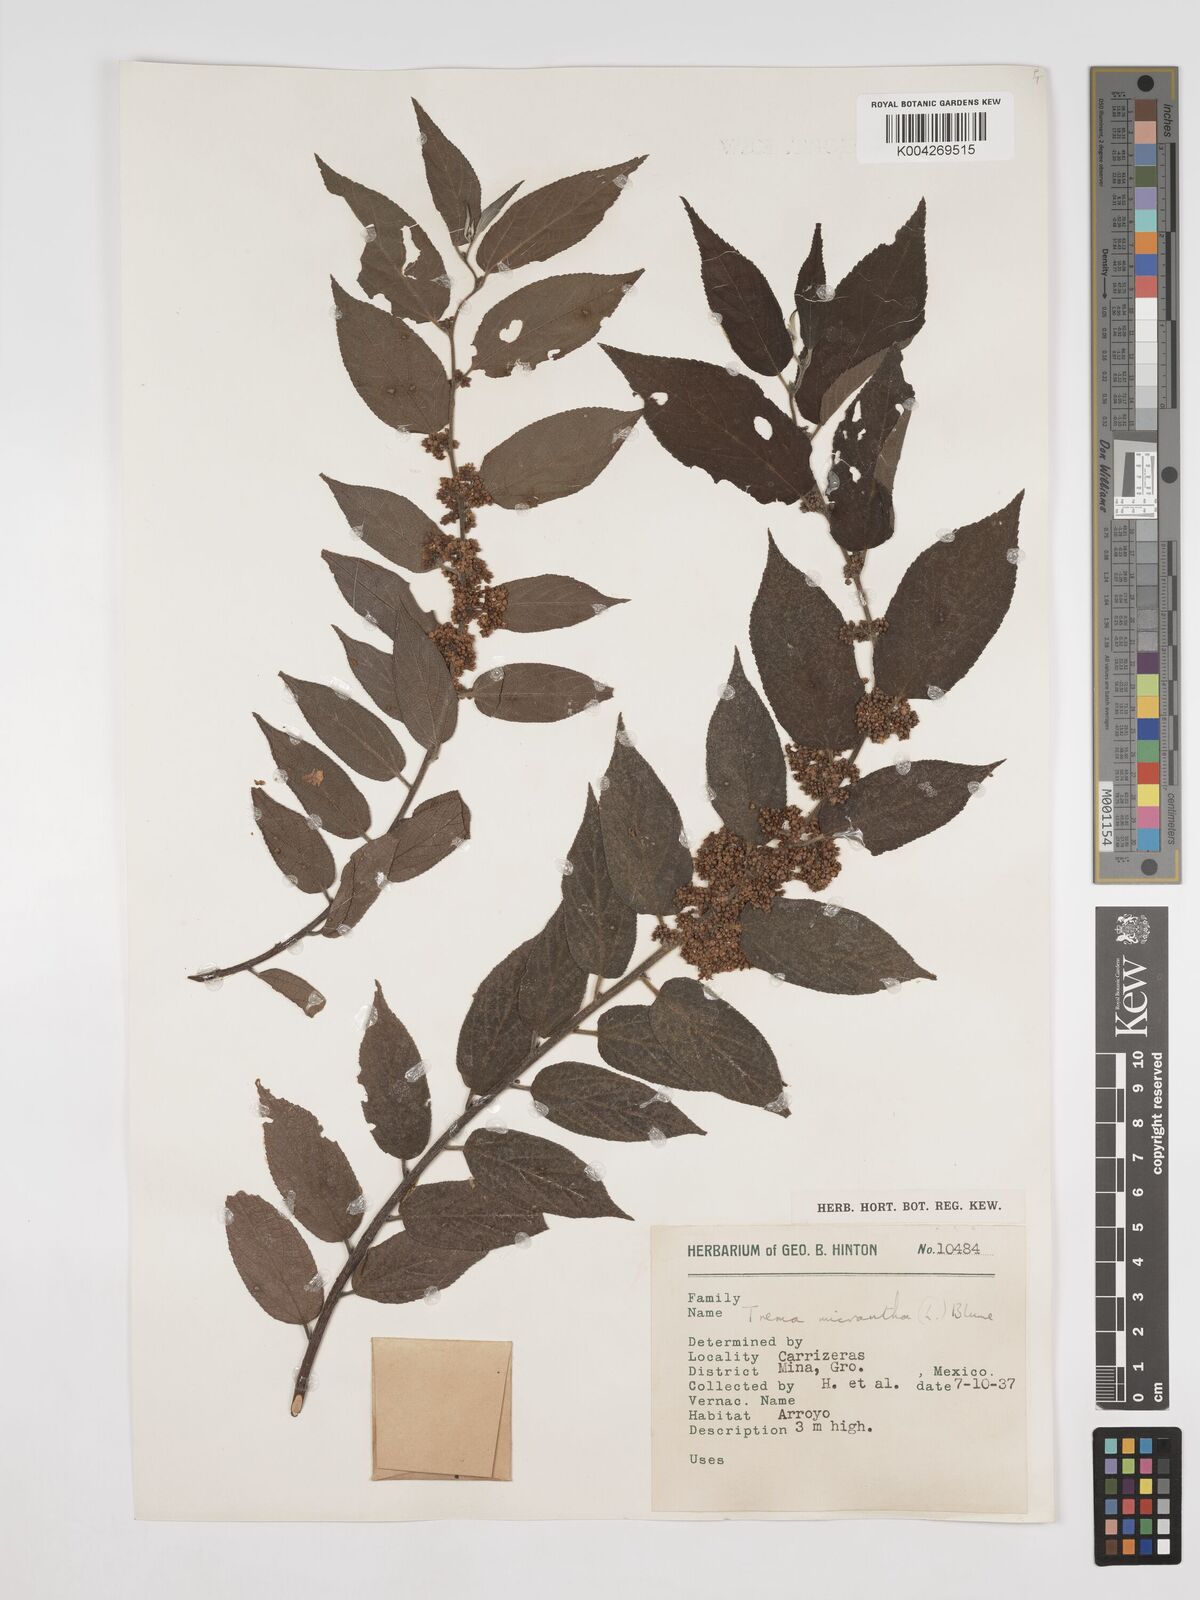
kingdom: Plantae
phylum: Tracheophyta
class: Magnoliopsida
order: Rosales
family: Cannabaceae
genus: Trema
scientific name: Trema micranthum
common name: Jamaican nettletree
